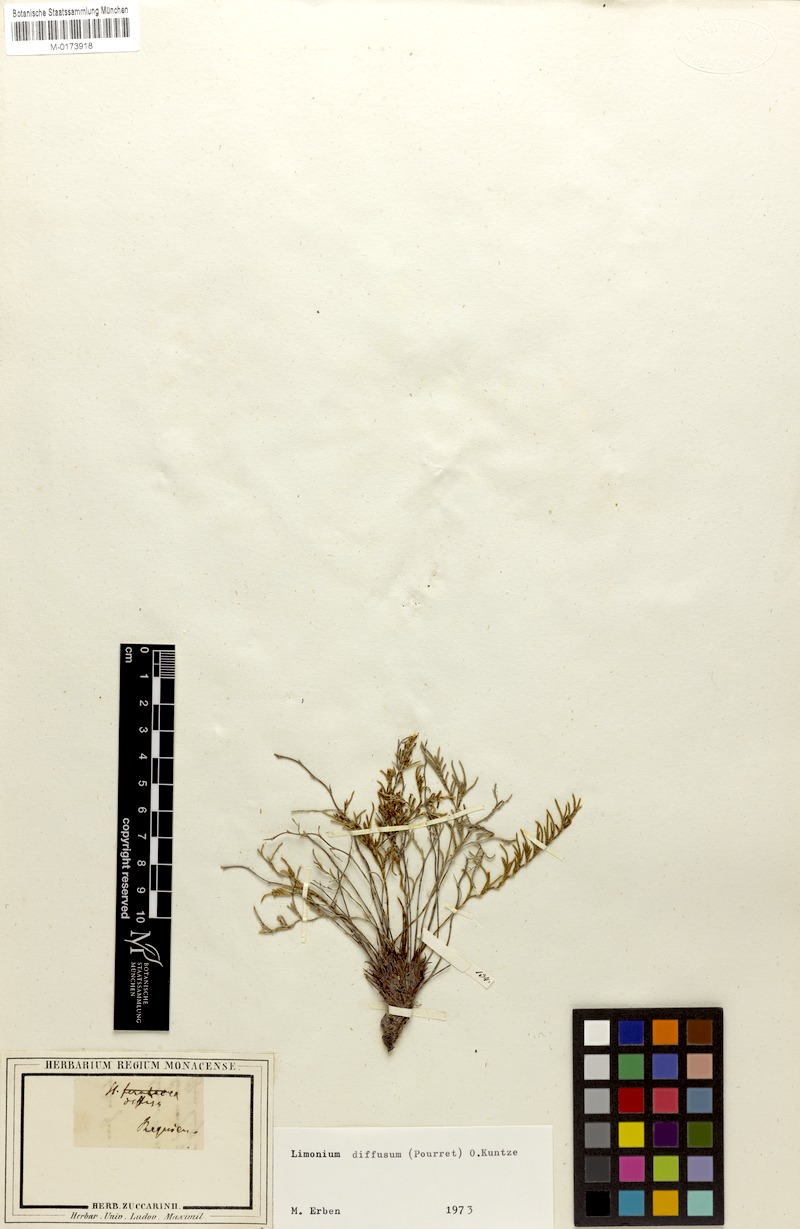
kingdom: Plantae
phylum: Tracheophyta
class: Magnoliopsida
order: Caryophyllales
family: Plumbaginaceae
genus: Myriolimon
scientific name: Myriolimon diffusum
